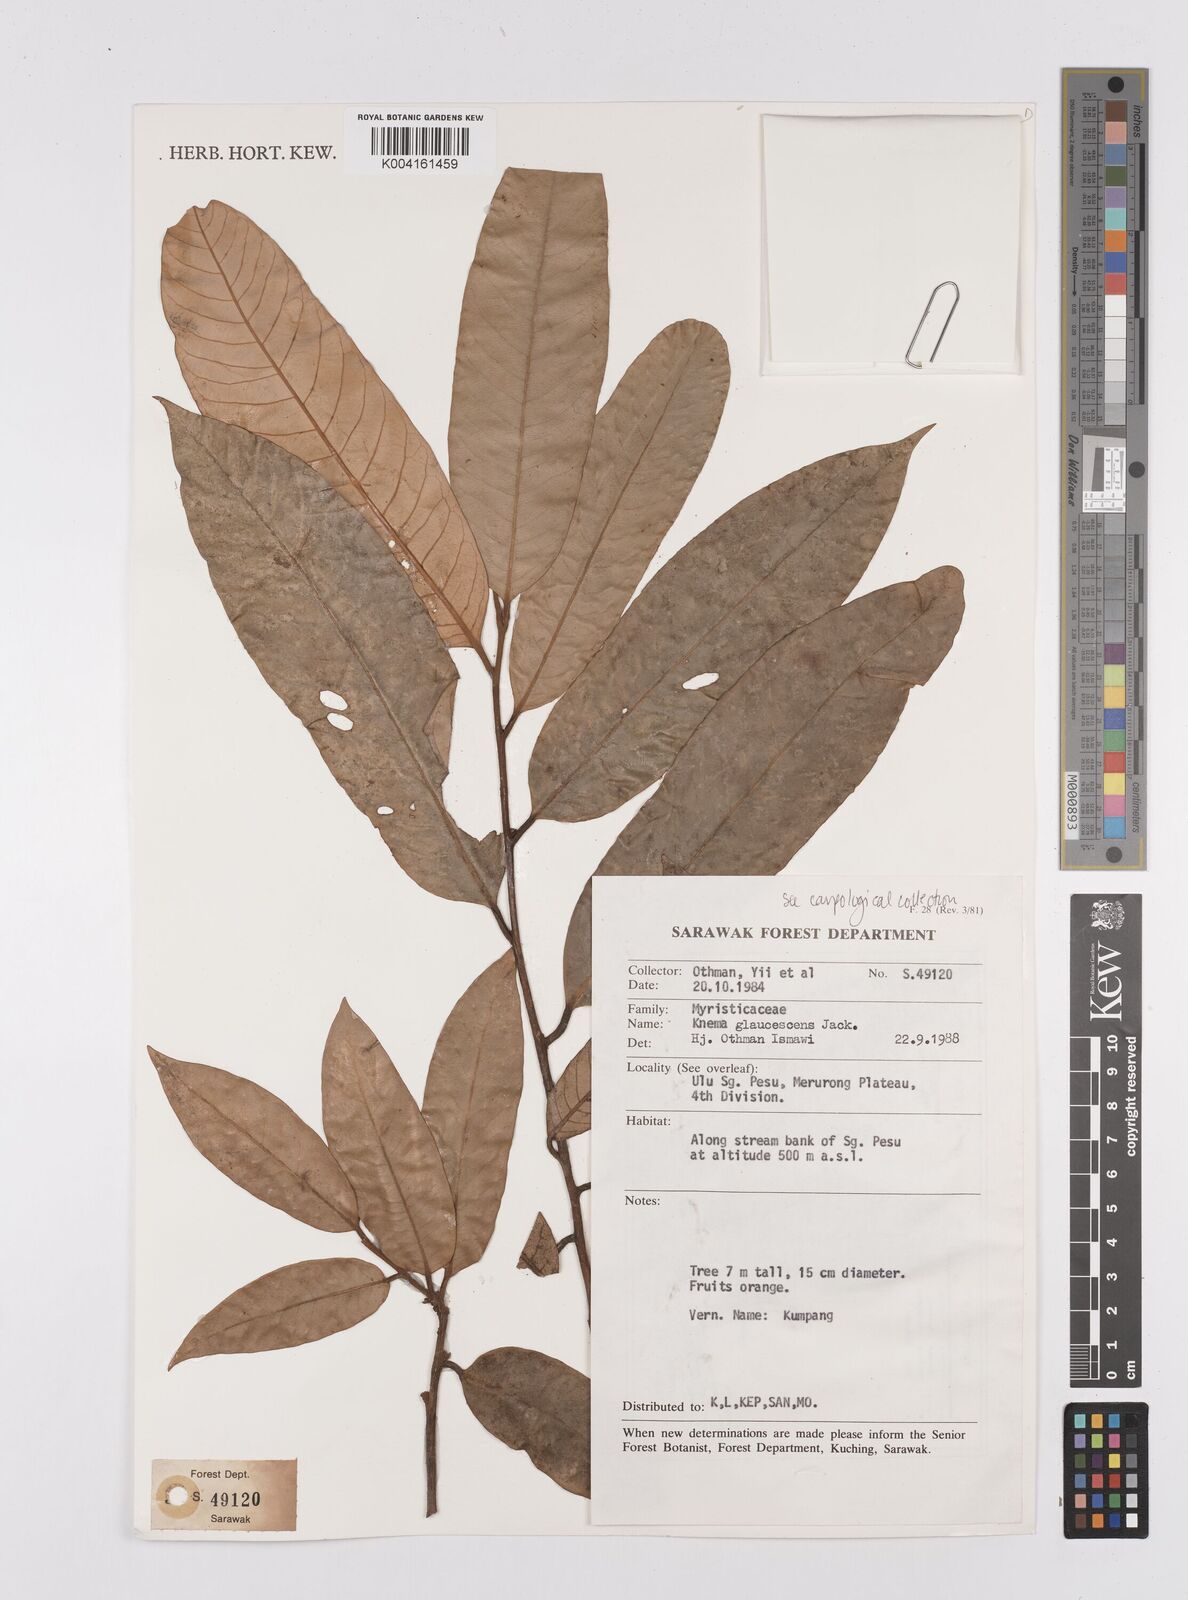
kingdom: Plantae
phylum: Tracheophyta
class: Magnoliopsida
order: Magnoliales
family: Myristicaceae
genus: Knema
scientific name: Knema
